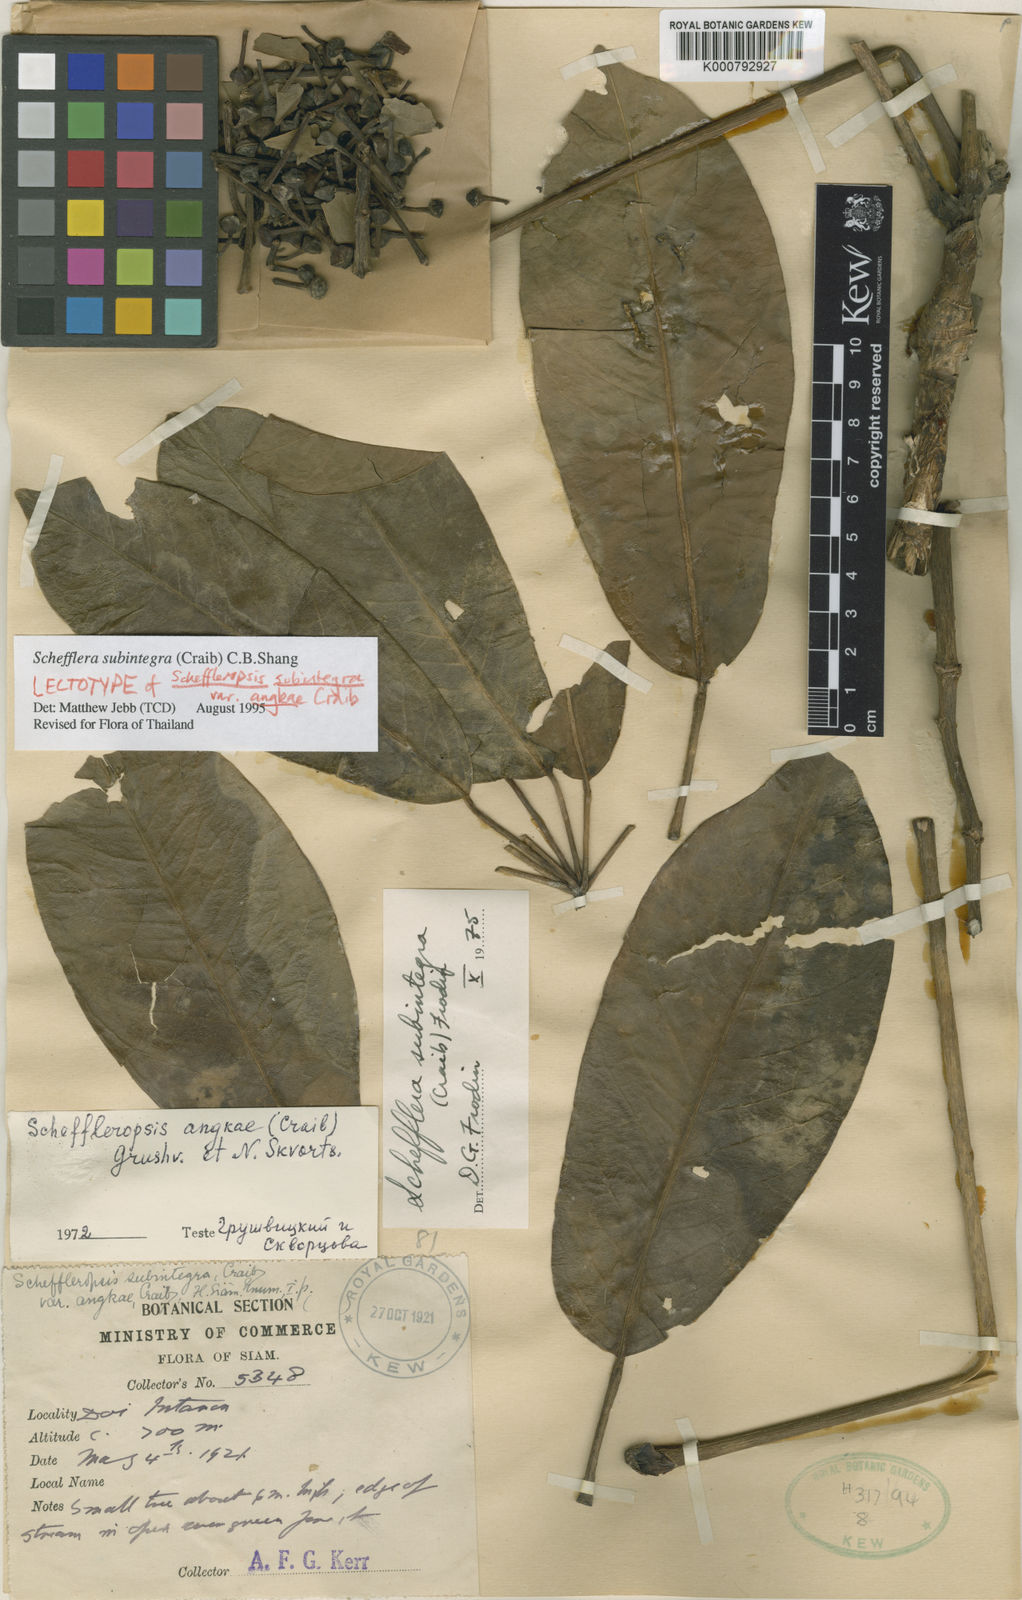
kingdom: Plantae
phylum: Tracheophyta
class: Magnoliopsida
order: Apiales
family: Araliaceae
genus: Heptapleurum
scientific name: Heptapleurum subintegrum
